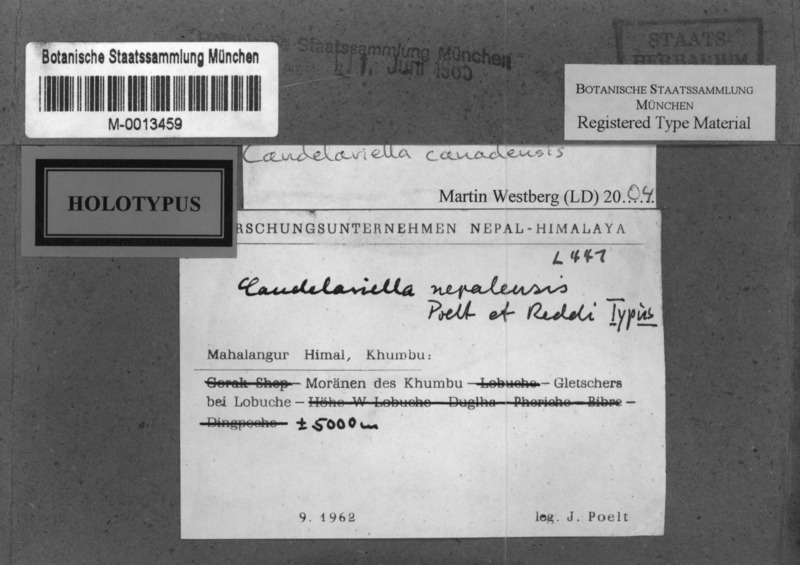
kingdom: Fungi
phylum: Ascomycota
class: Candelariomycetes
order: Candelariales
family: Candelariaceae
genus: Opeltiella
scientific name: Opeltiella canadensis
